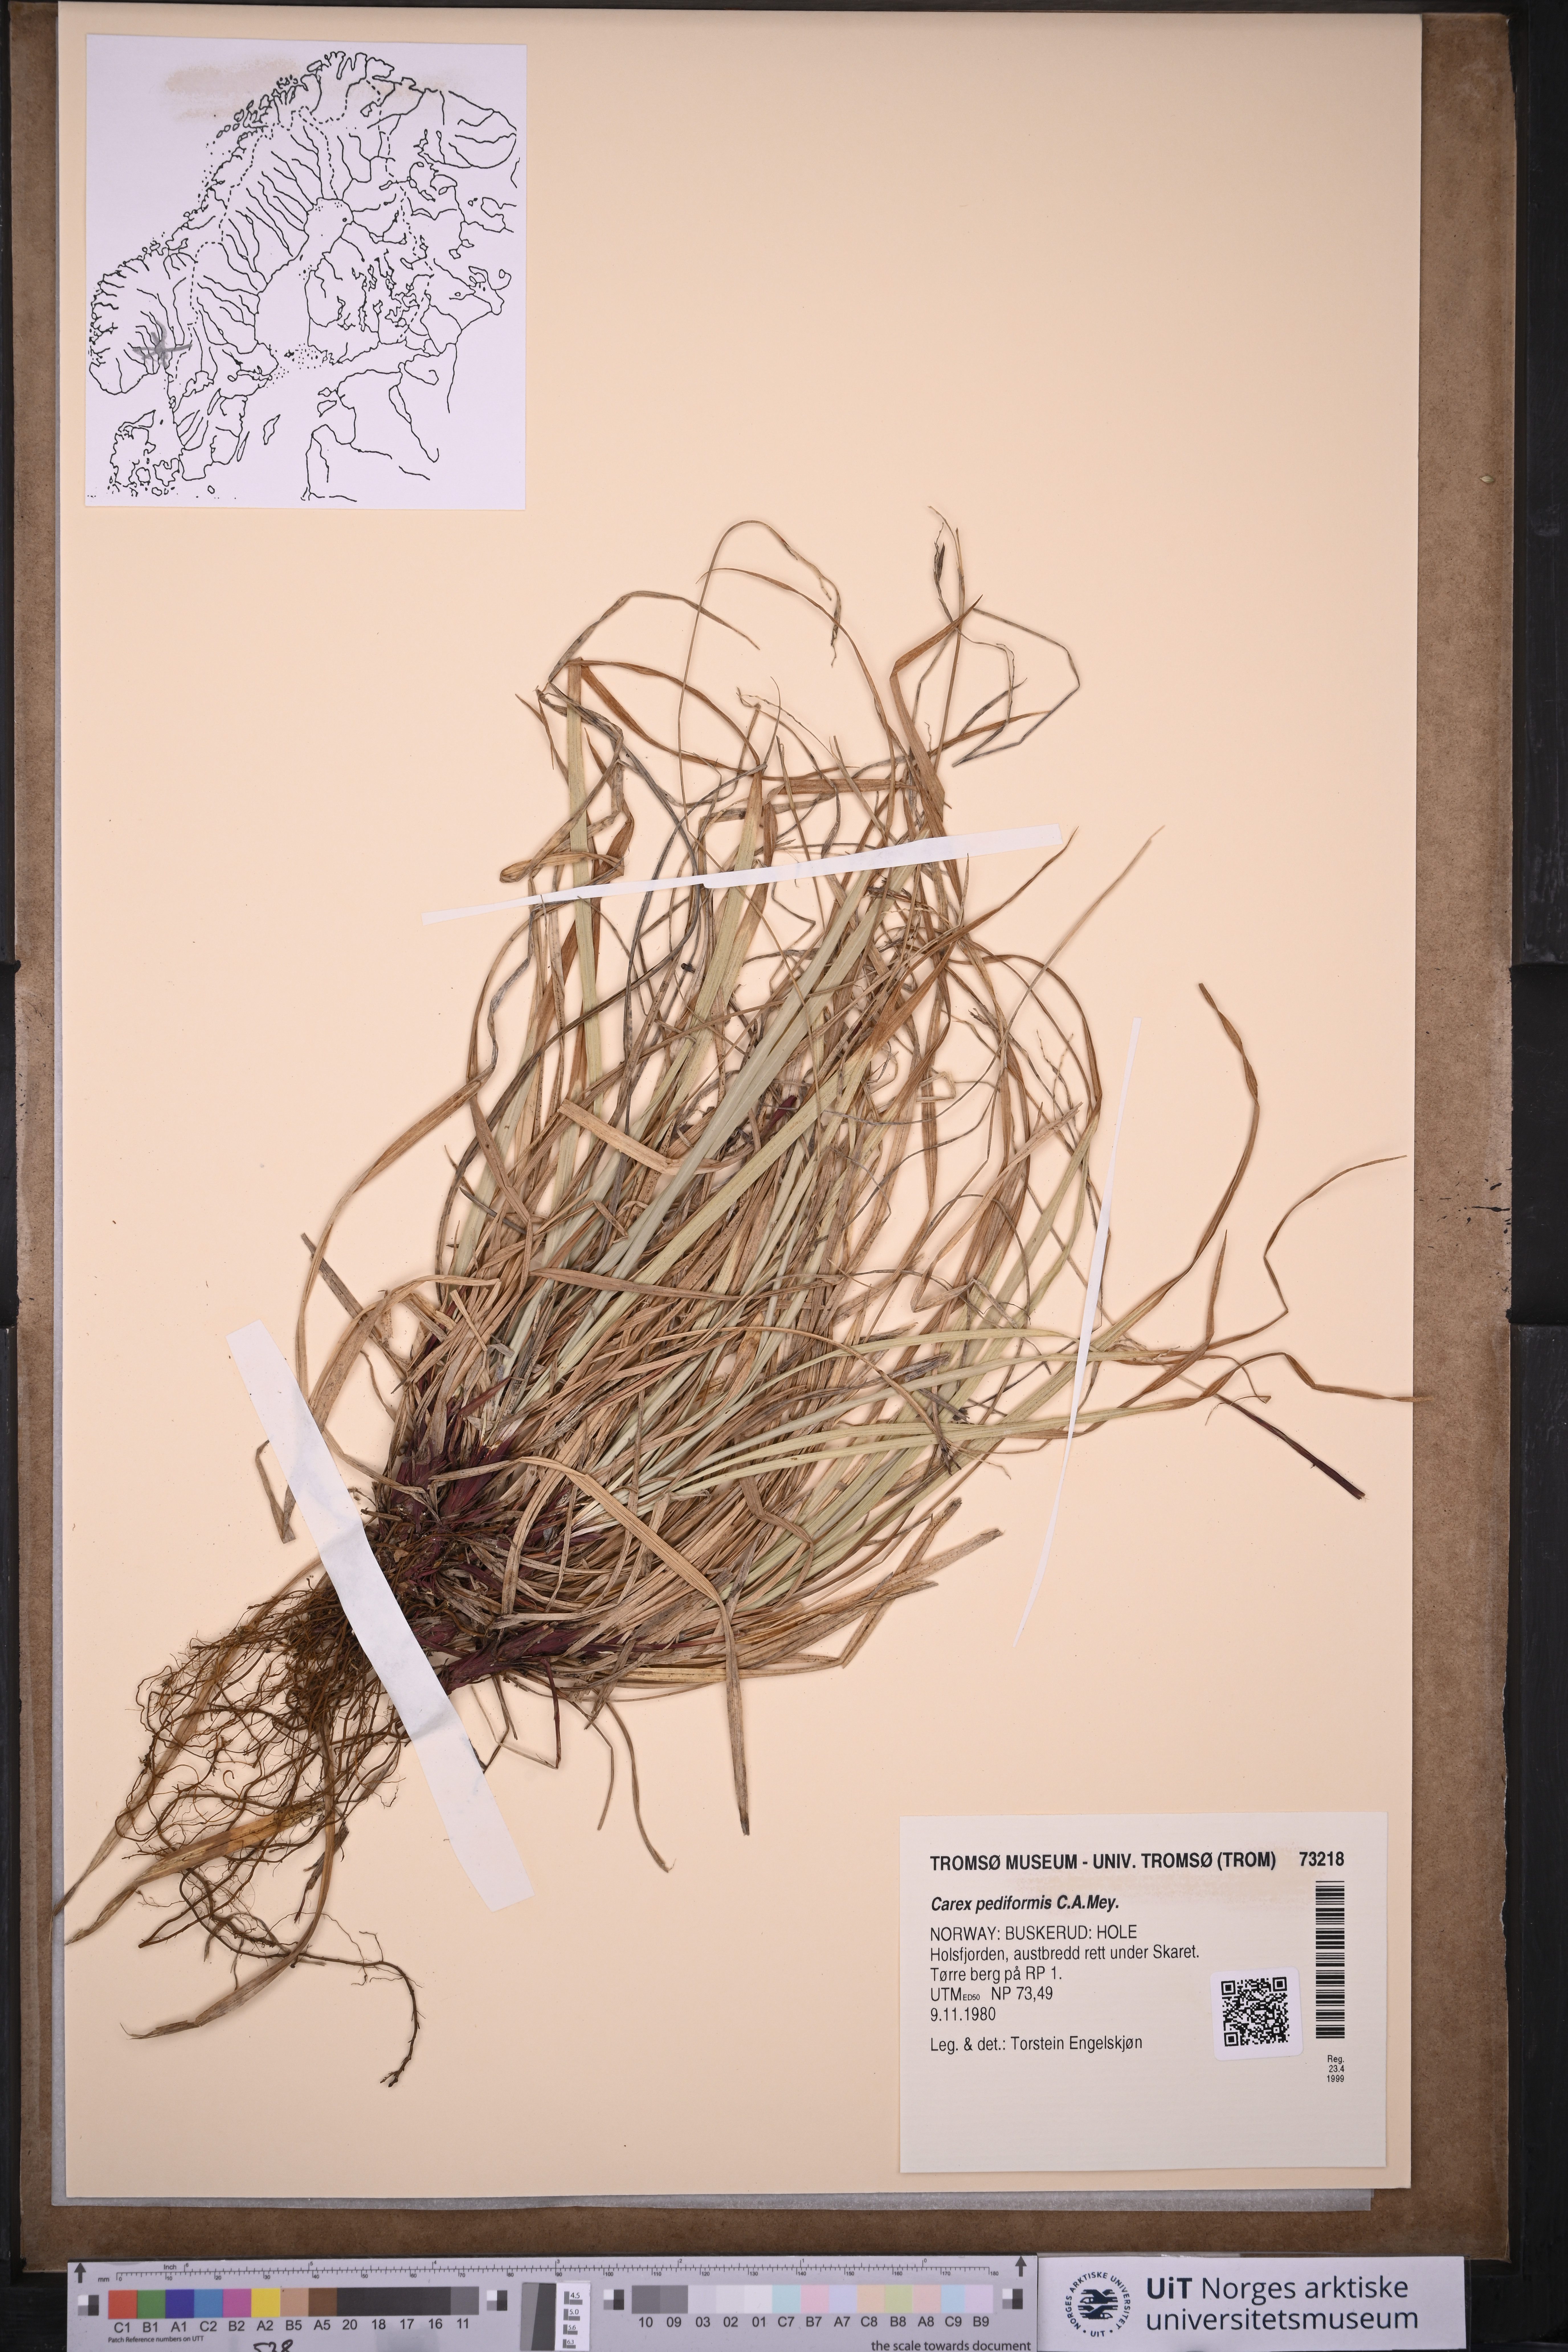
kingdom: Plantae
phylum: Tracheophyta
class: Liliopsida
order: Poales
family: Cyperaceae
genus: Carex
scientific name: Carex rhizina
